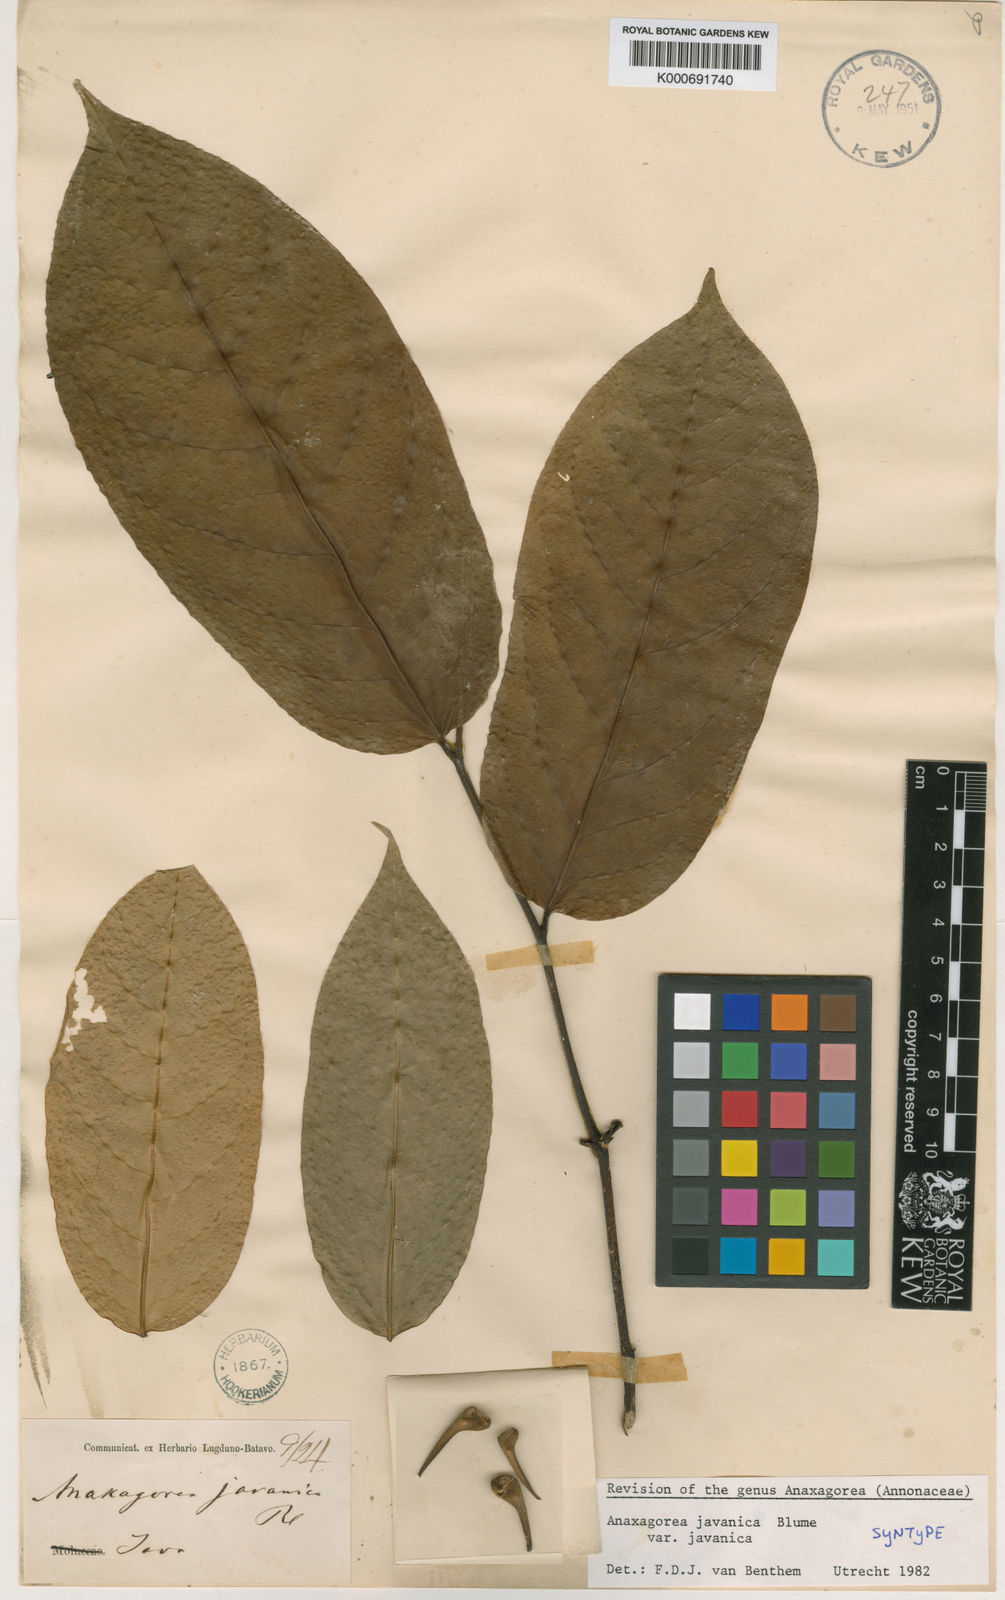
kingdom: Plantae
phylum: Tracheophyta
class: Magnoliopsida
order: Magnoliales
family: Annonaceae
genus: Anaxagorea
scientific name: Anaxagorea javanica
